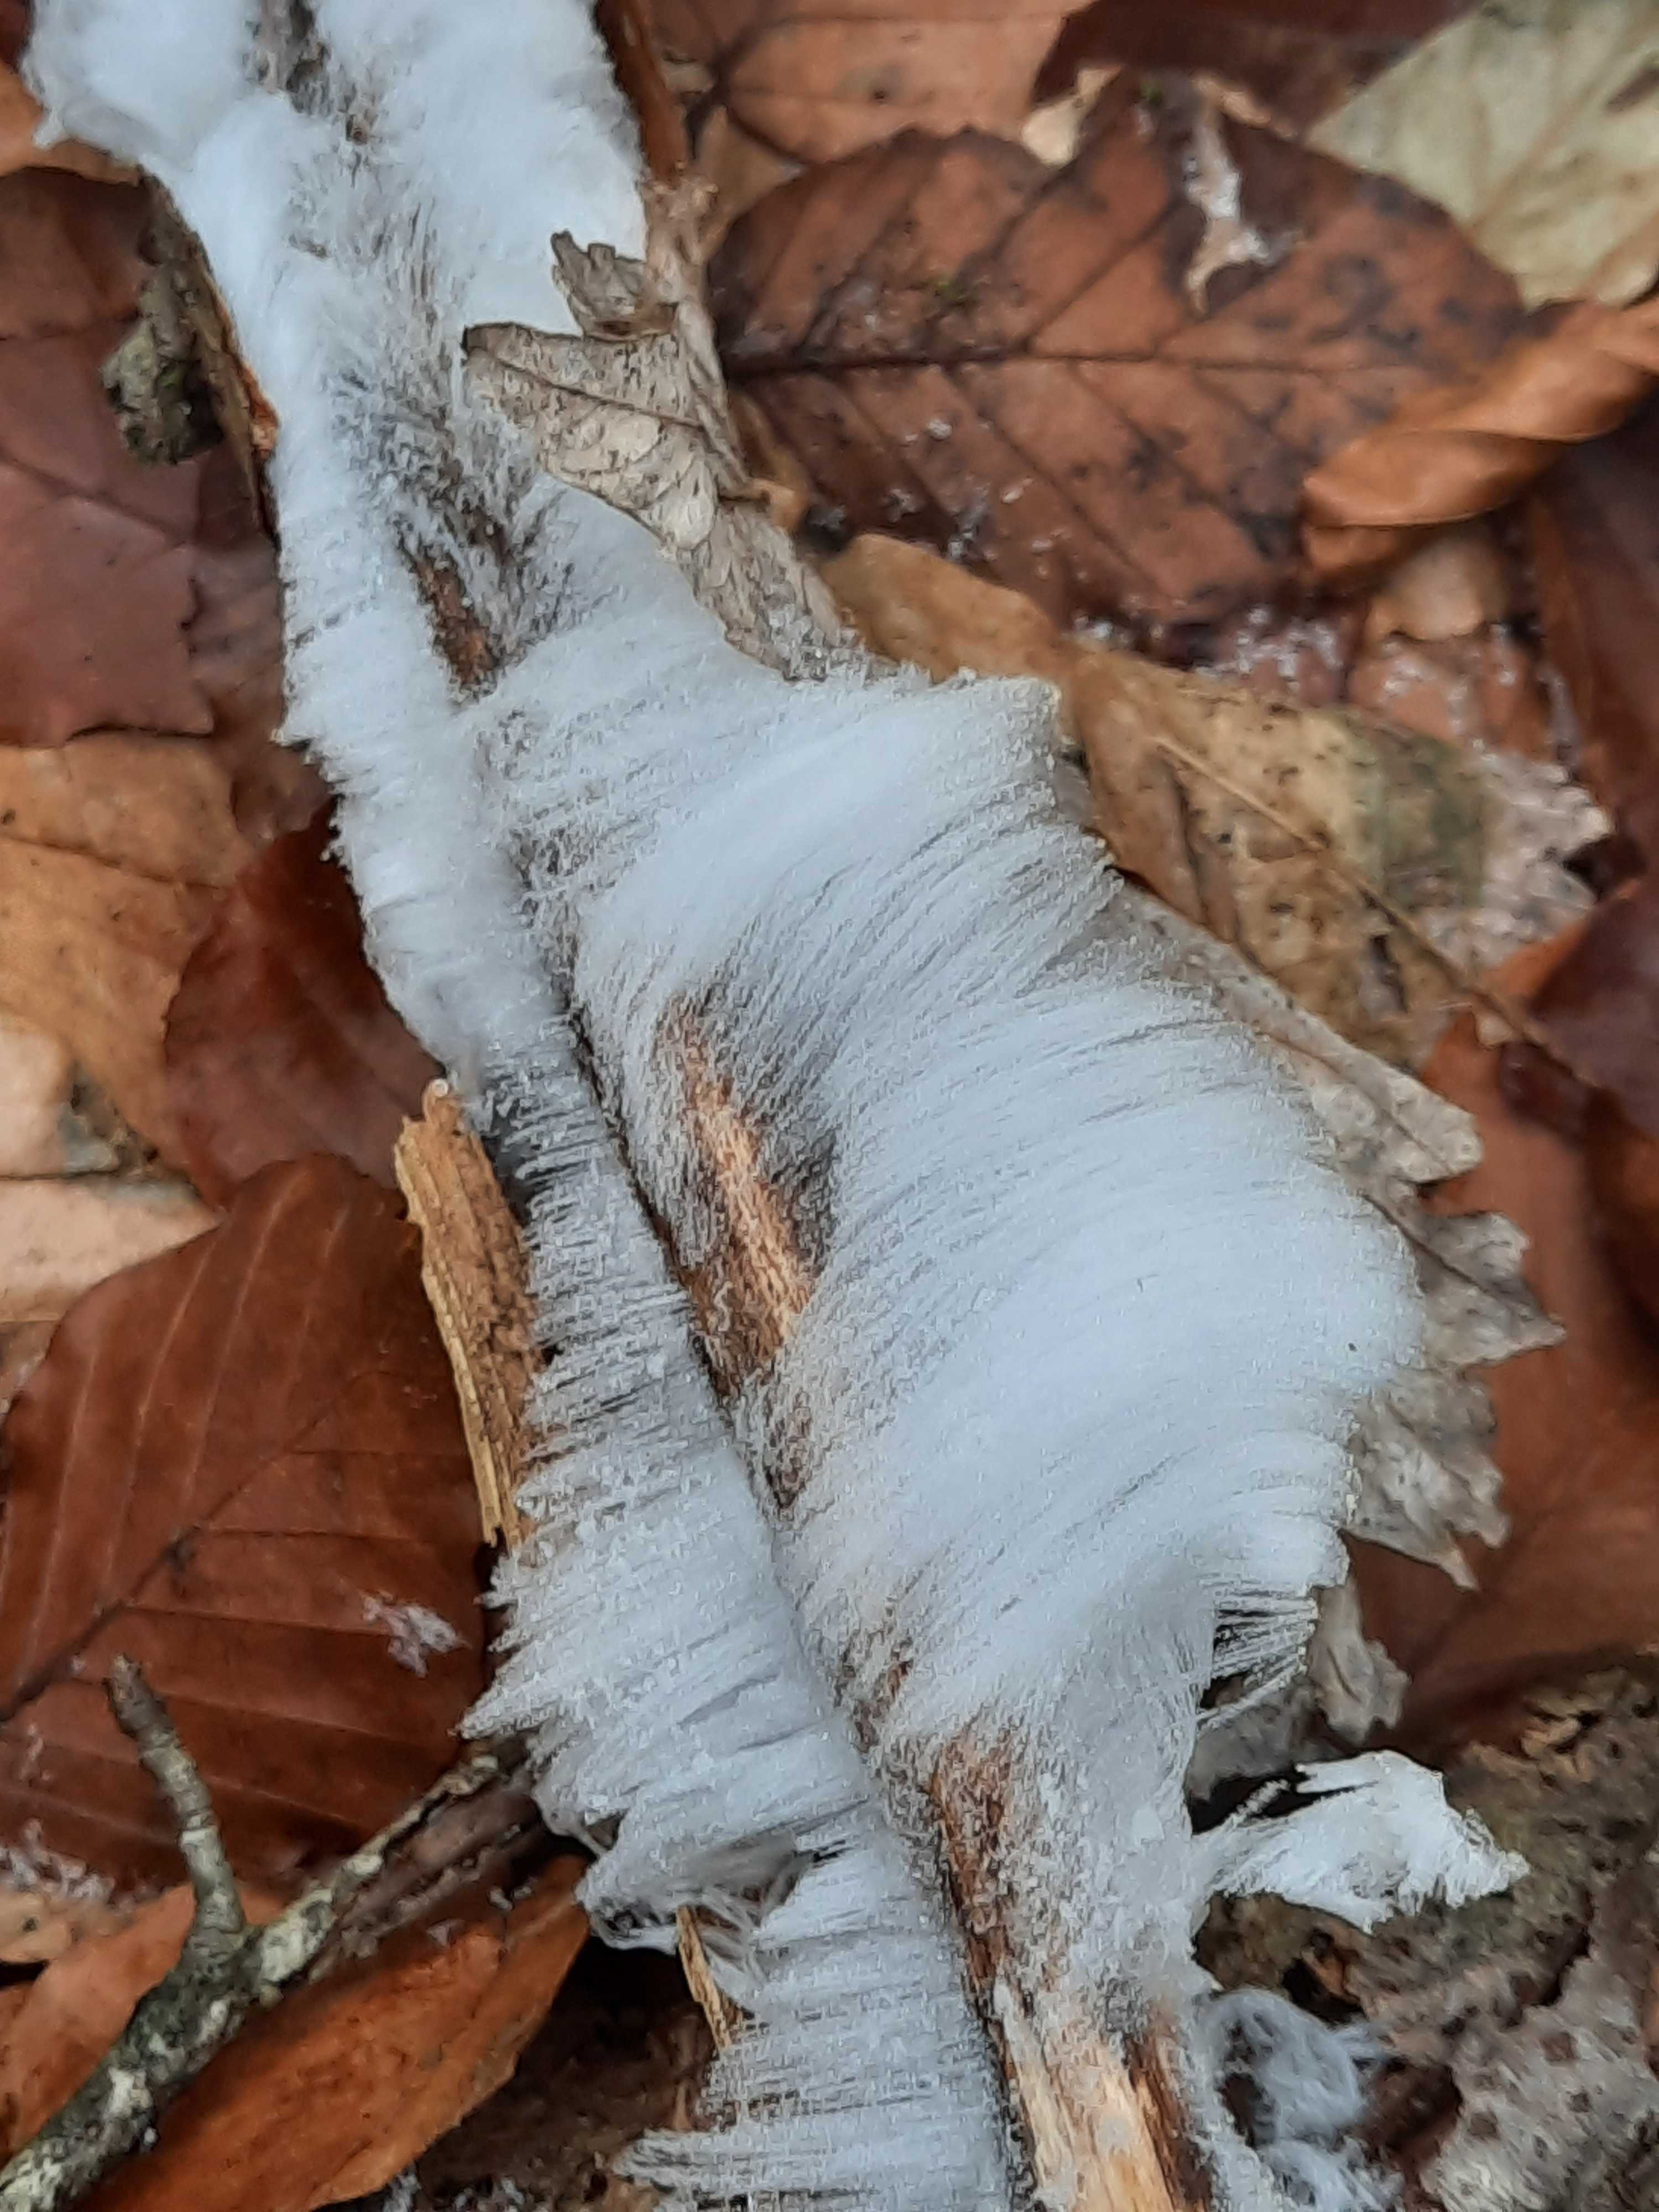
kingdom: Fungi
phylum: Basidiomycota
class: Tremellomycetes
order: Tremellales
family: Exidiaceae
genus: Exidiopsis
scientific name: Exidiopsis effusa
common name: smuk bævrehinde
